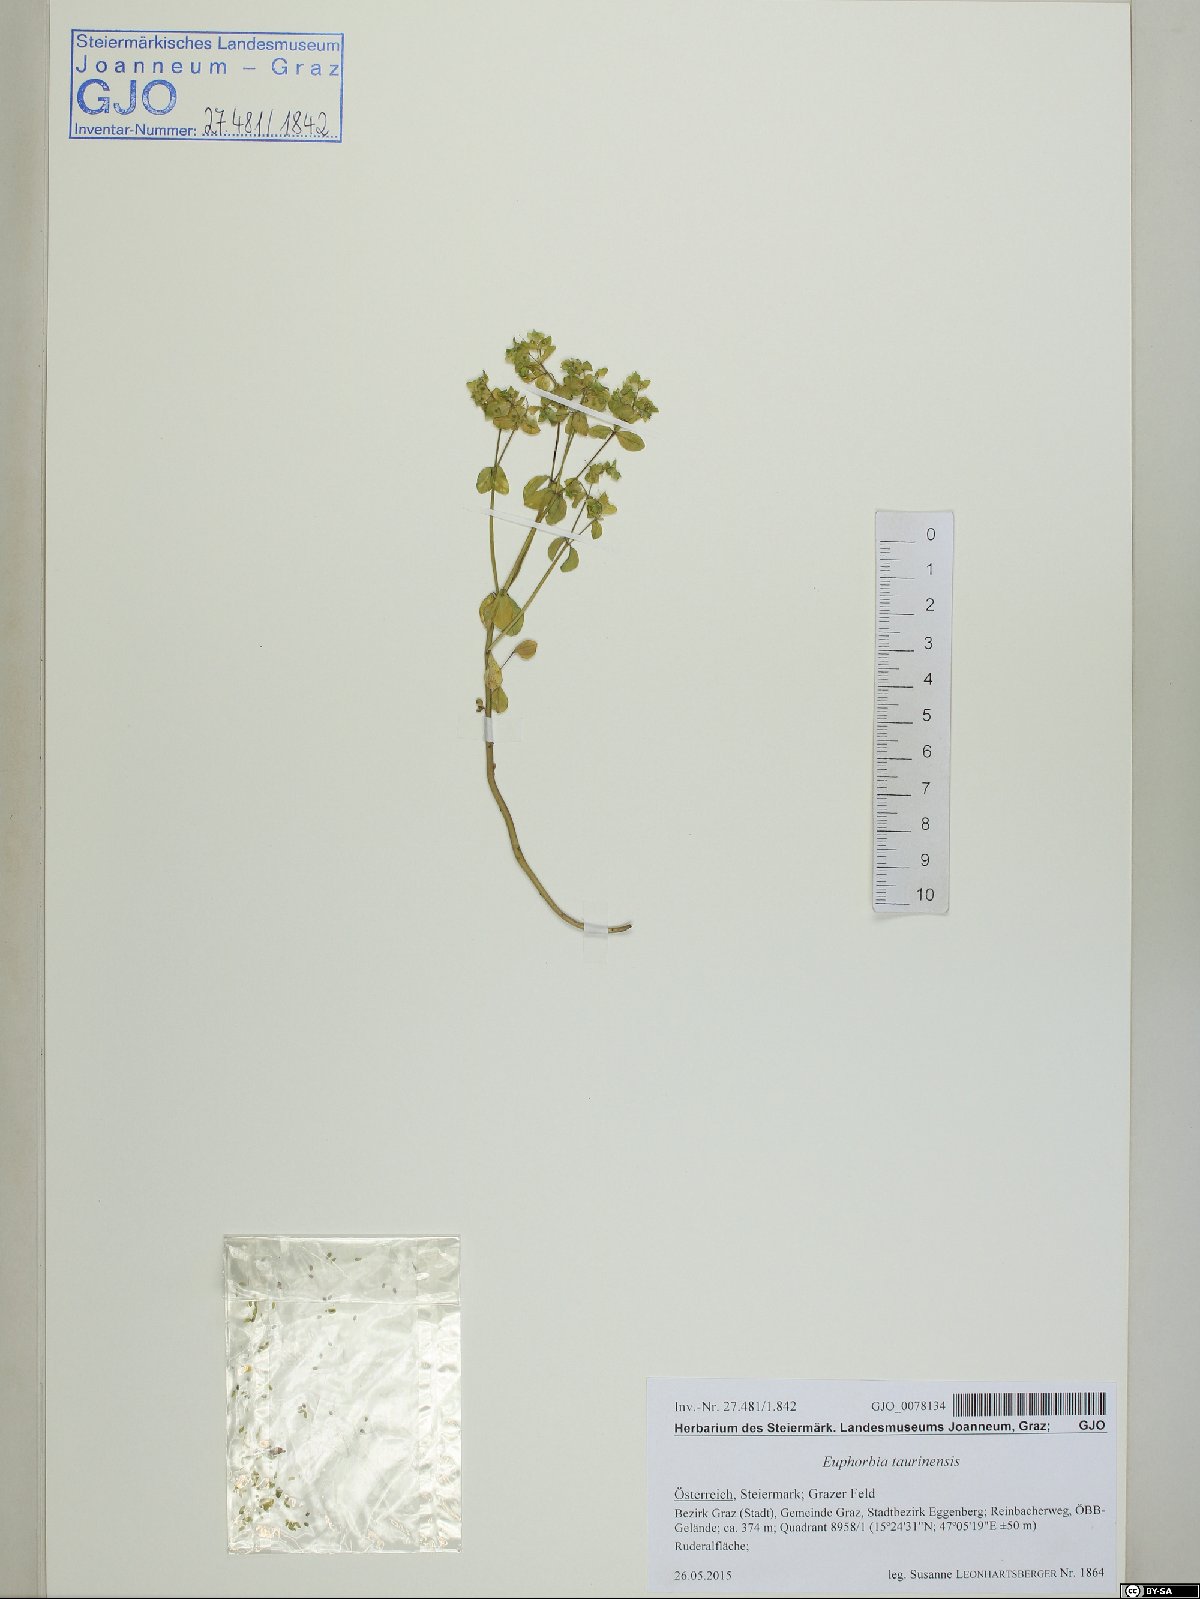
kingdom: Plantae
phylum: Tracheophyta
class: Magnoliopsida
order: Malpighiales
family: Euphorbiaceae
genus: Euphorbia
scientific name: Euphorbia peplus
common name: Petty spurge
